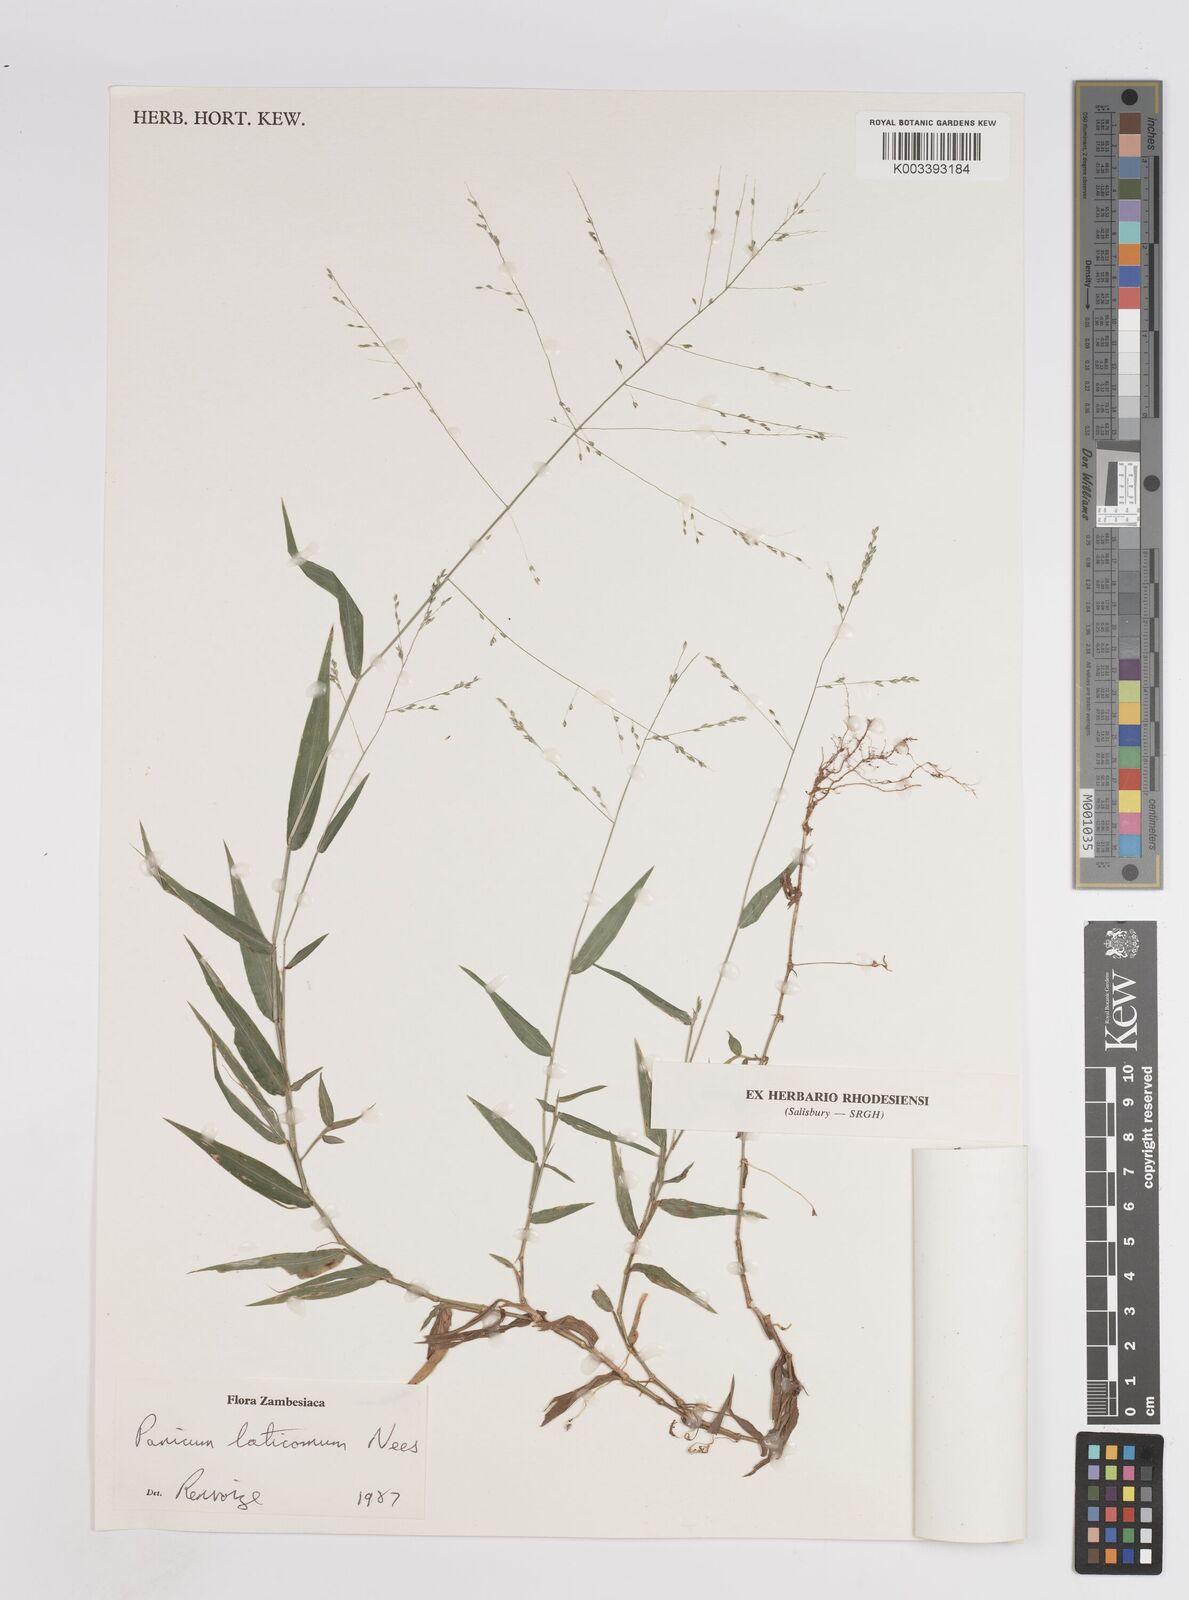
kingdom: Plantae
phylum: Tracheophyta
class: Liliopsida
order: Poales
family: Poaceae
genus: Panicum
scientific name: Panicum laticomum
